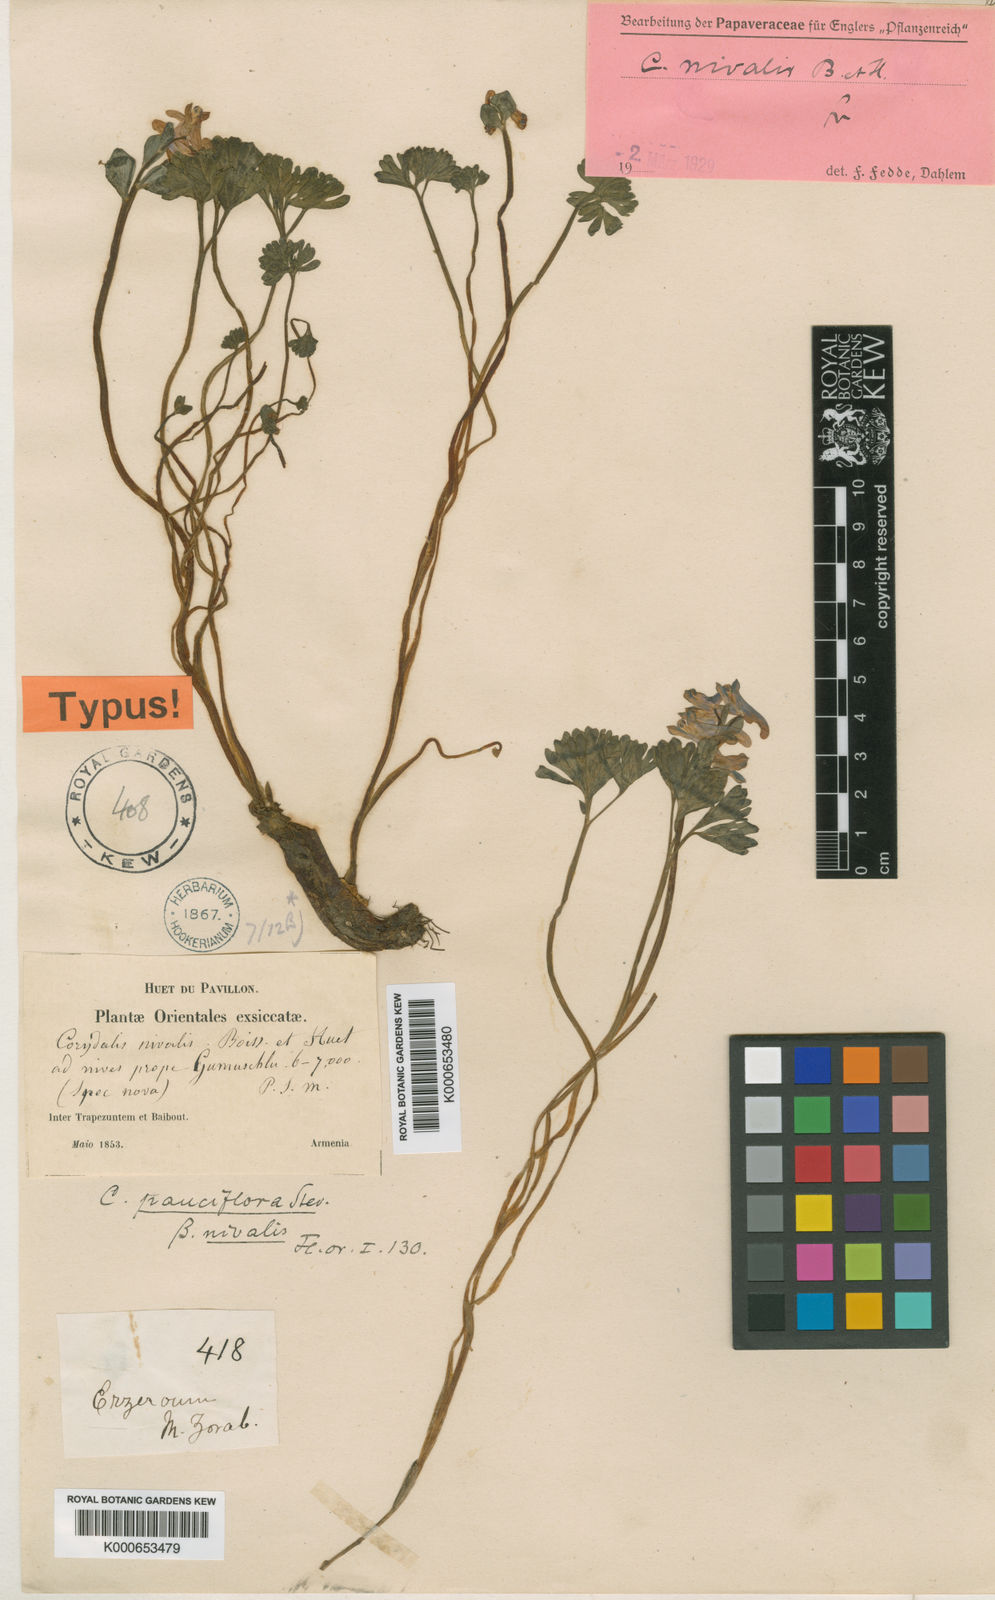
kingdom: Plantae
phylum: Tracheophyta
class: Magnoliopsida
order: Ranunculales
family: Papaveraceae
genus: Corydalis
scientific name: Corydalis alpestris
